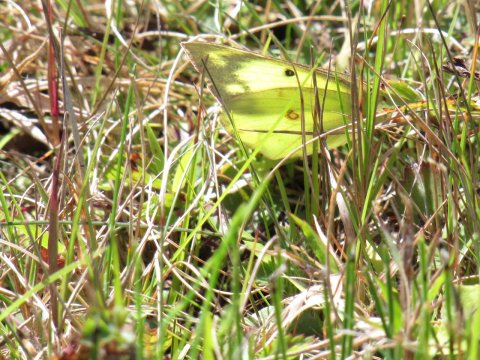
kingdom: Animalia
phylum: Arthropoda
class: Insecta
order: Lepidoptera
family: Pieridae
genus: Colias
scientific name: Colias philodice
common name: Clouded Sulphur
